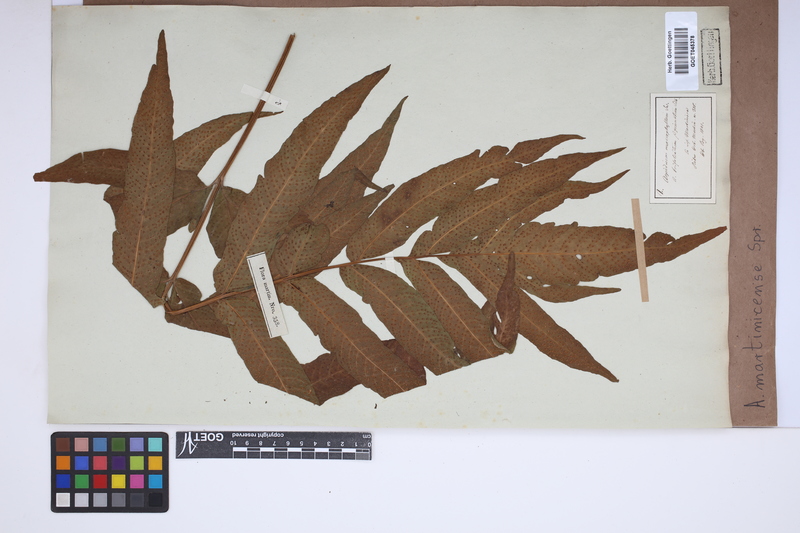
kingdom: Plantae
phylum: Tracheophyta
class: Polypodiopsida
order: Polypodiales
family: Tectariaceae
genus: Tectaria
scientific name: Tectaria incisa
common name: Incised halberd fern
